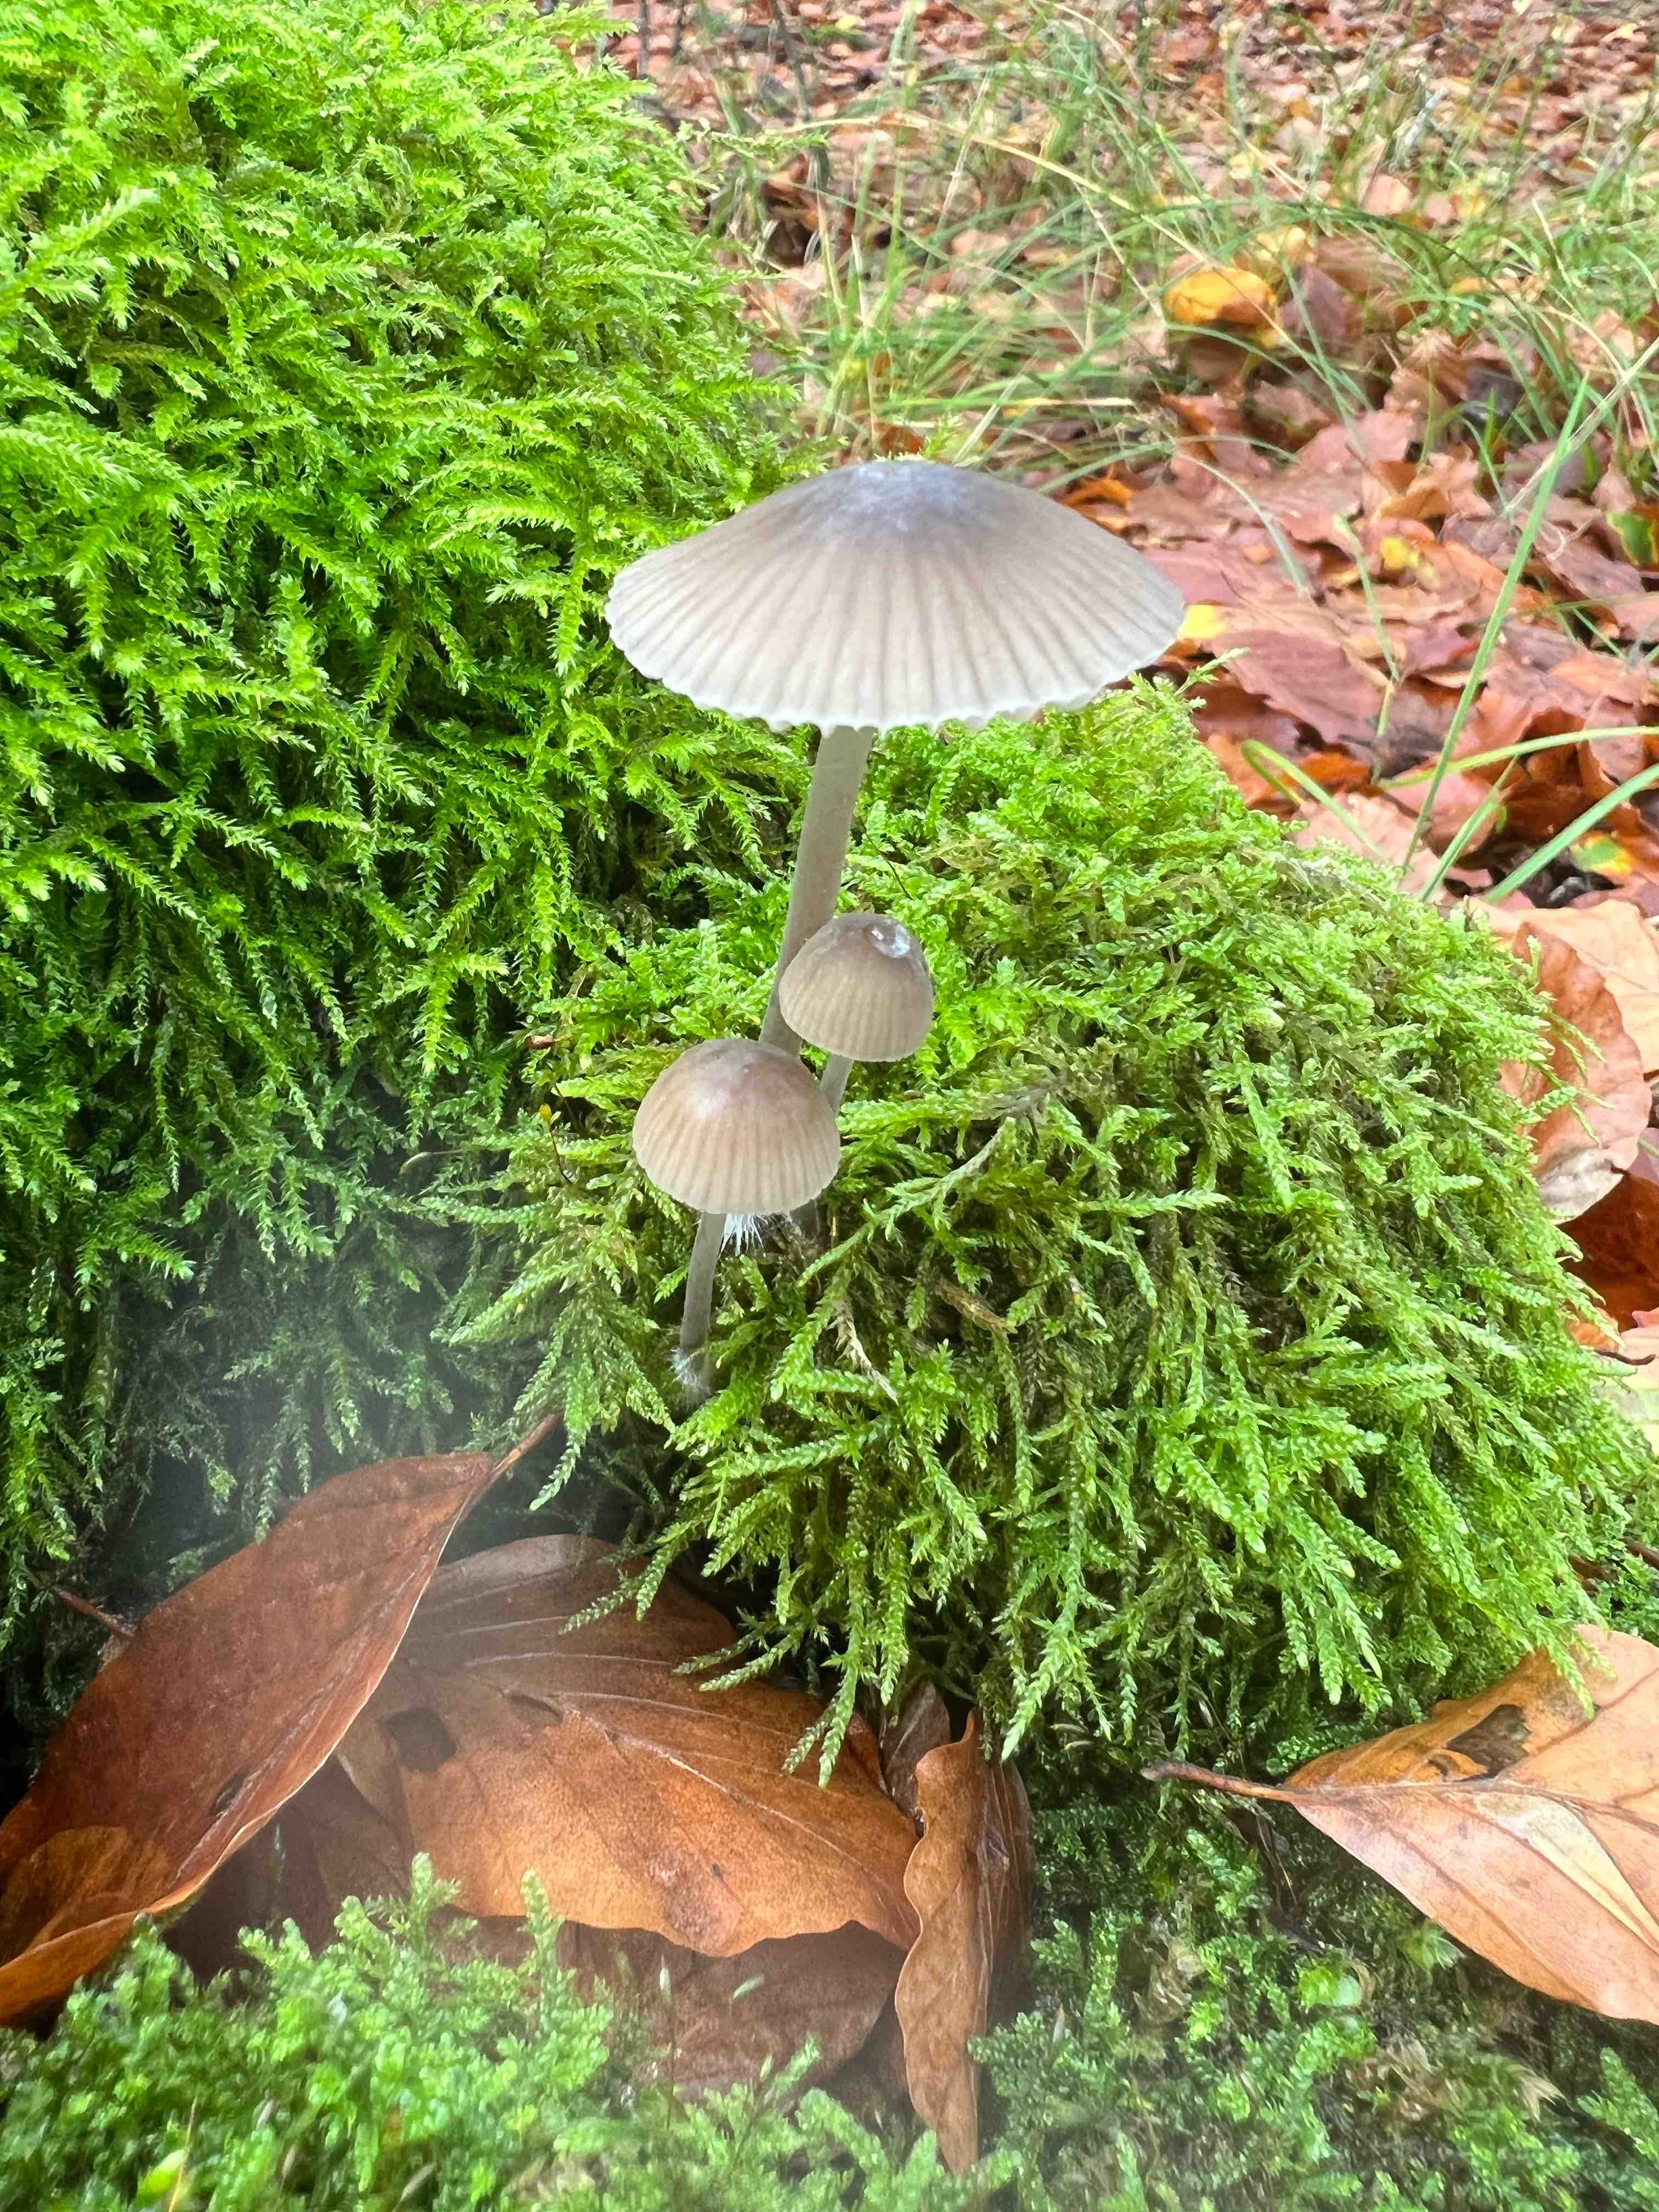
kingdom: Fungi
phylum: Basidiomycota
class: Agaricomycetes
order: Agaricales
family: Mycenaceae
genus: Mycena
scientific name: Mycena abramsii
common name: sommer-huesvamp
